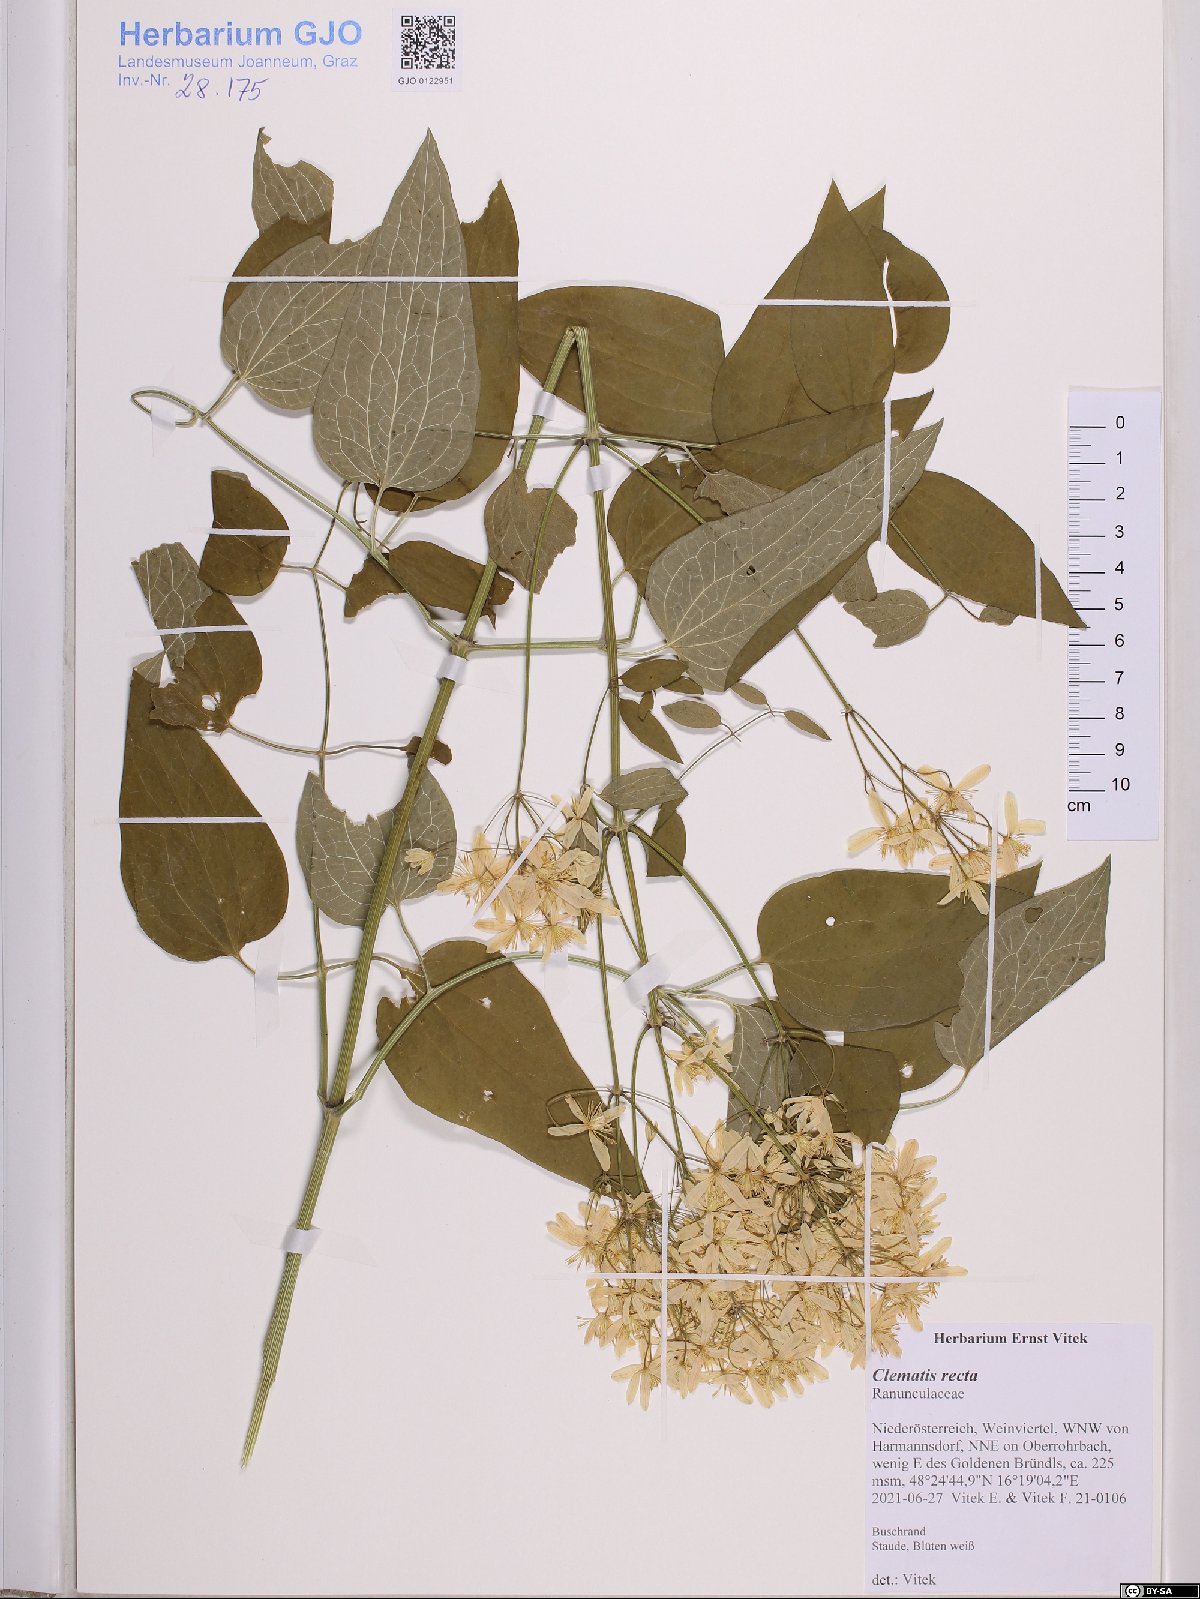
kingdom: Plantae
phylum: Tracheophyta
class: Magnoliopsida
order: Ranunculales
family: Ranunculaceae
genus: Clematis
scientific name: Clematis recta
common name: Ground clematis
